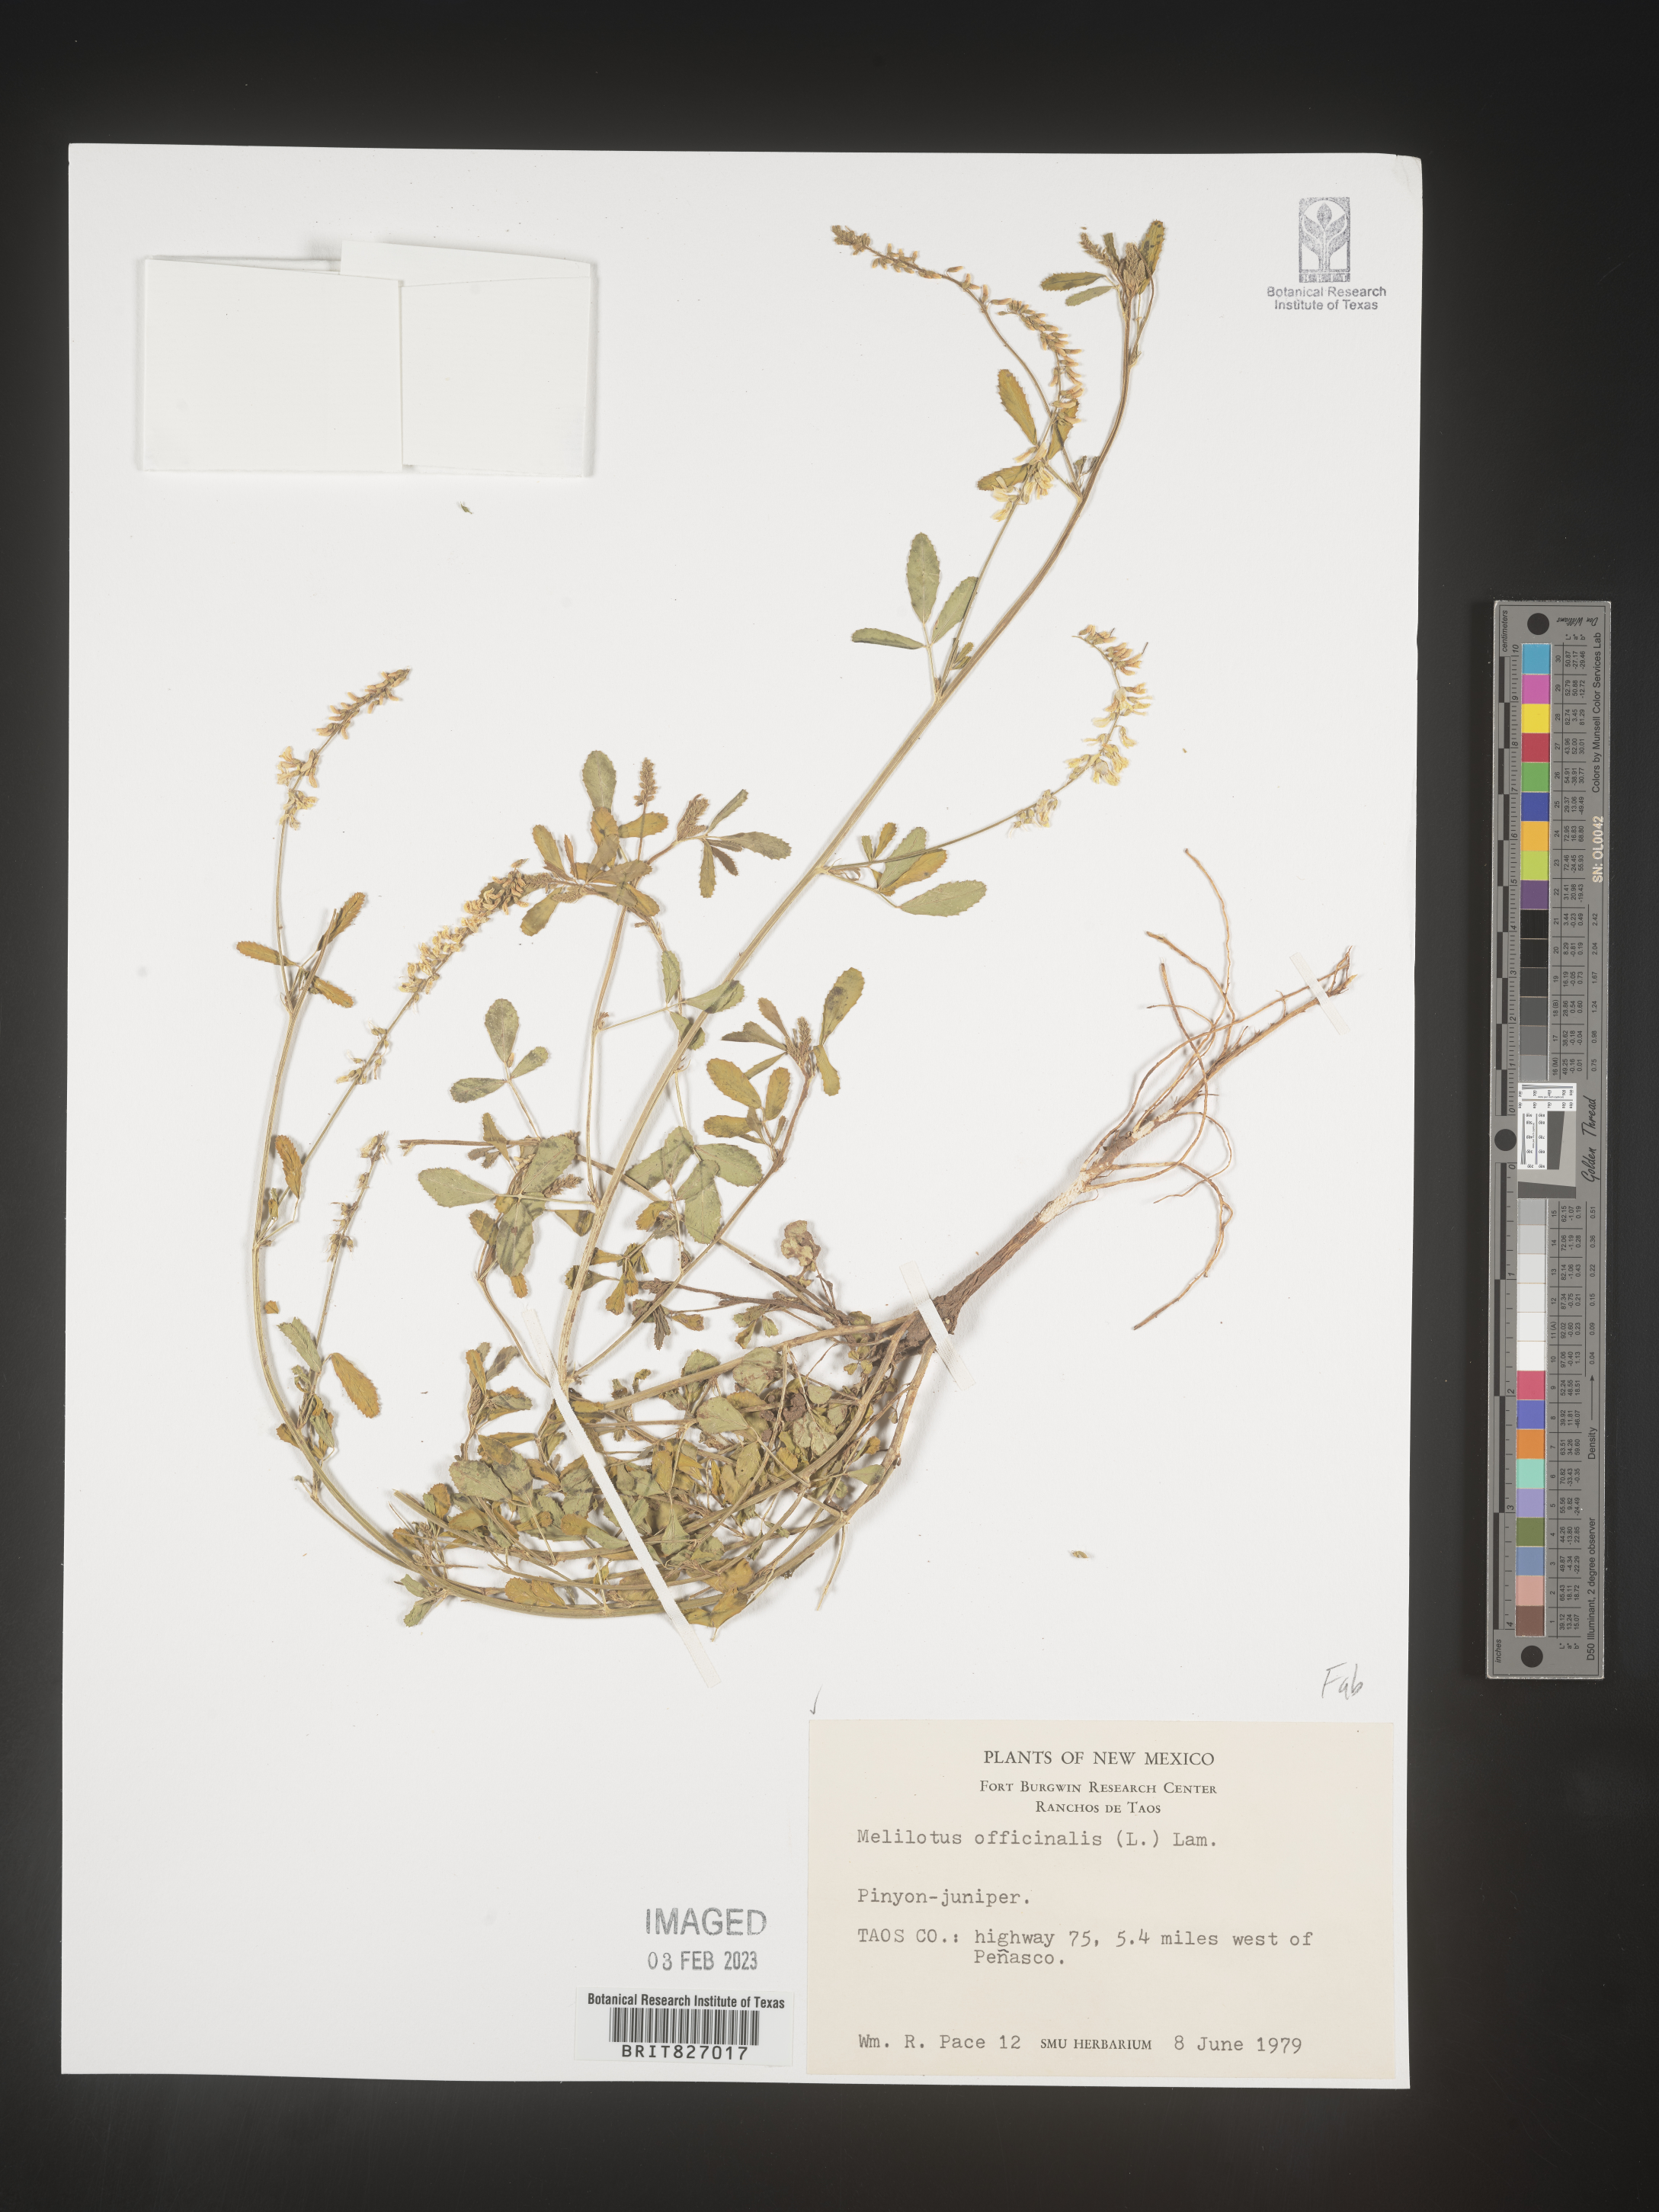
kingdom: Plantae
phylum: Tracheophyta
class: Magnoliopsida
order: Fabales
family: Fabaceae
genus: Melilotus
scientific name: Melilotus officinalis
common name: Sweetclover
